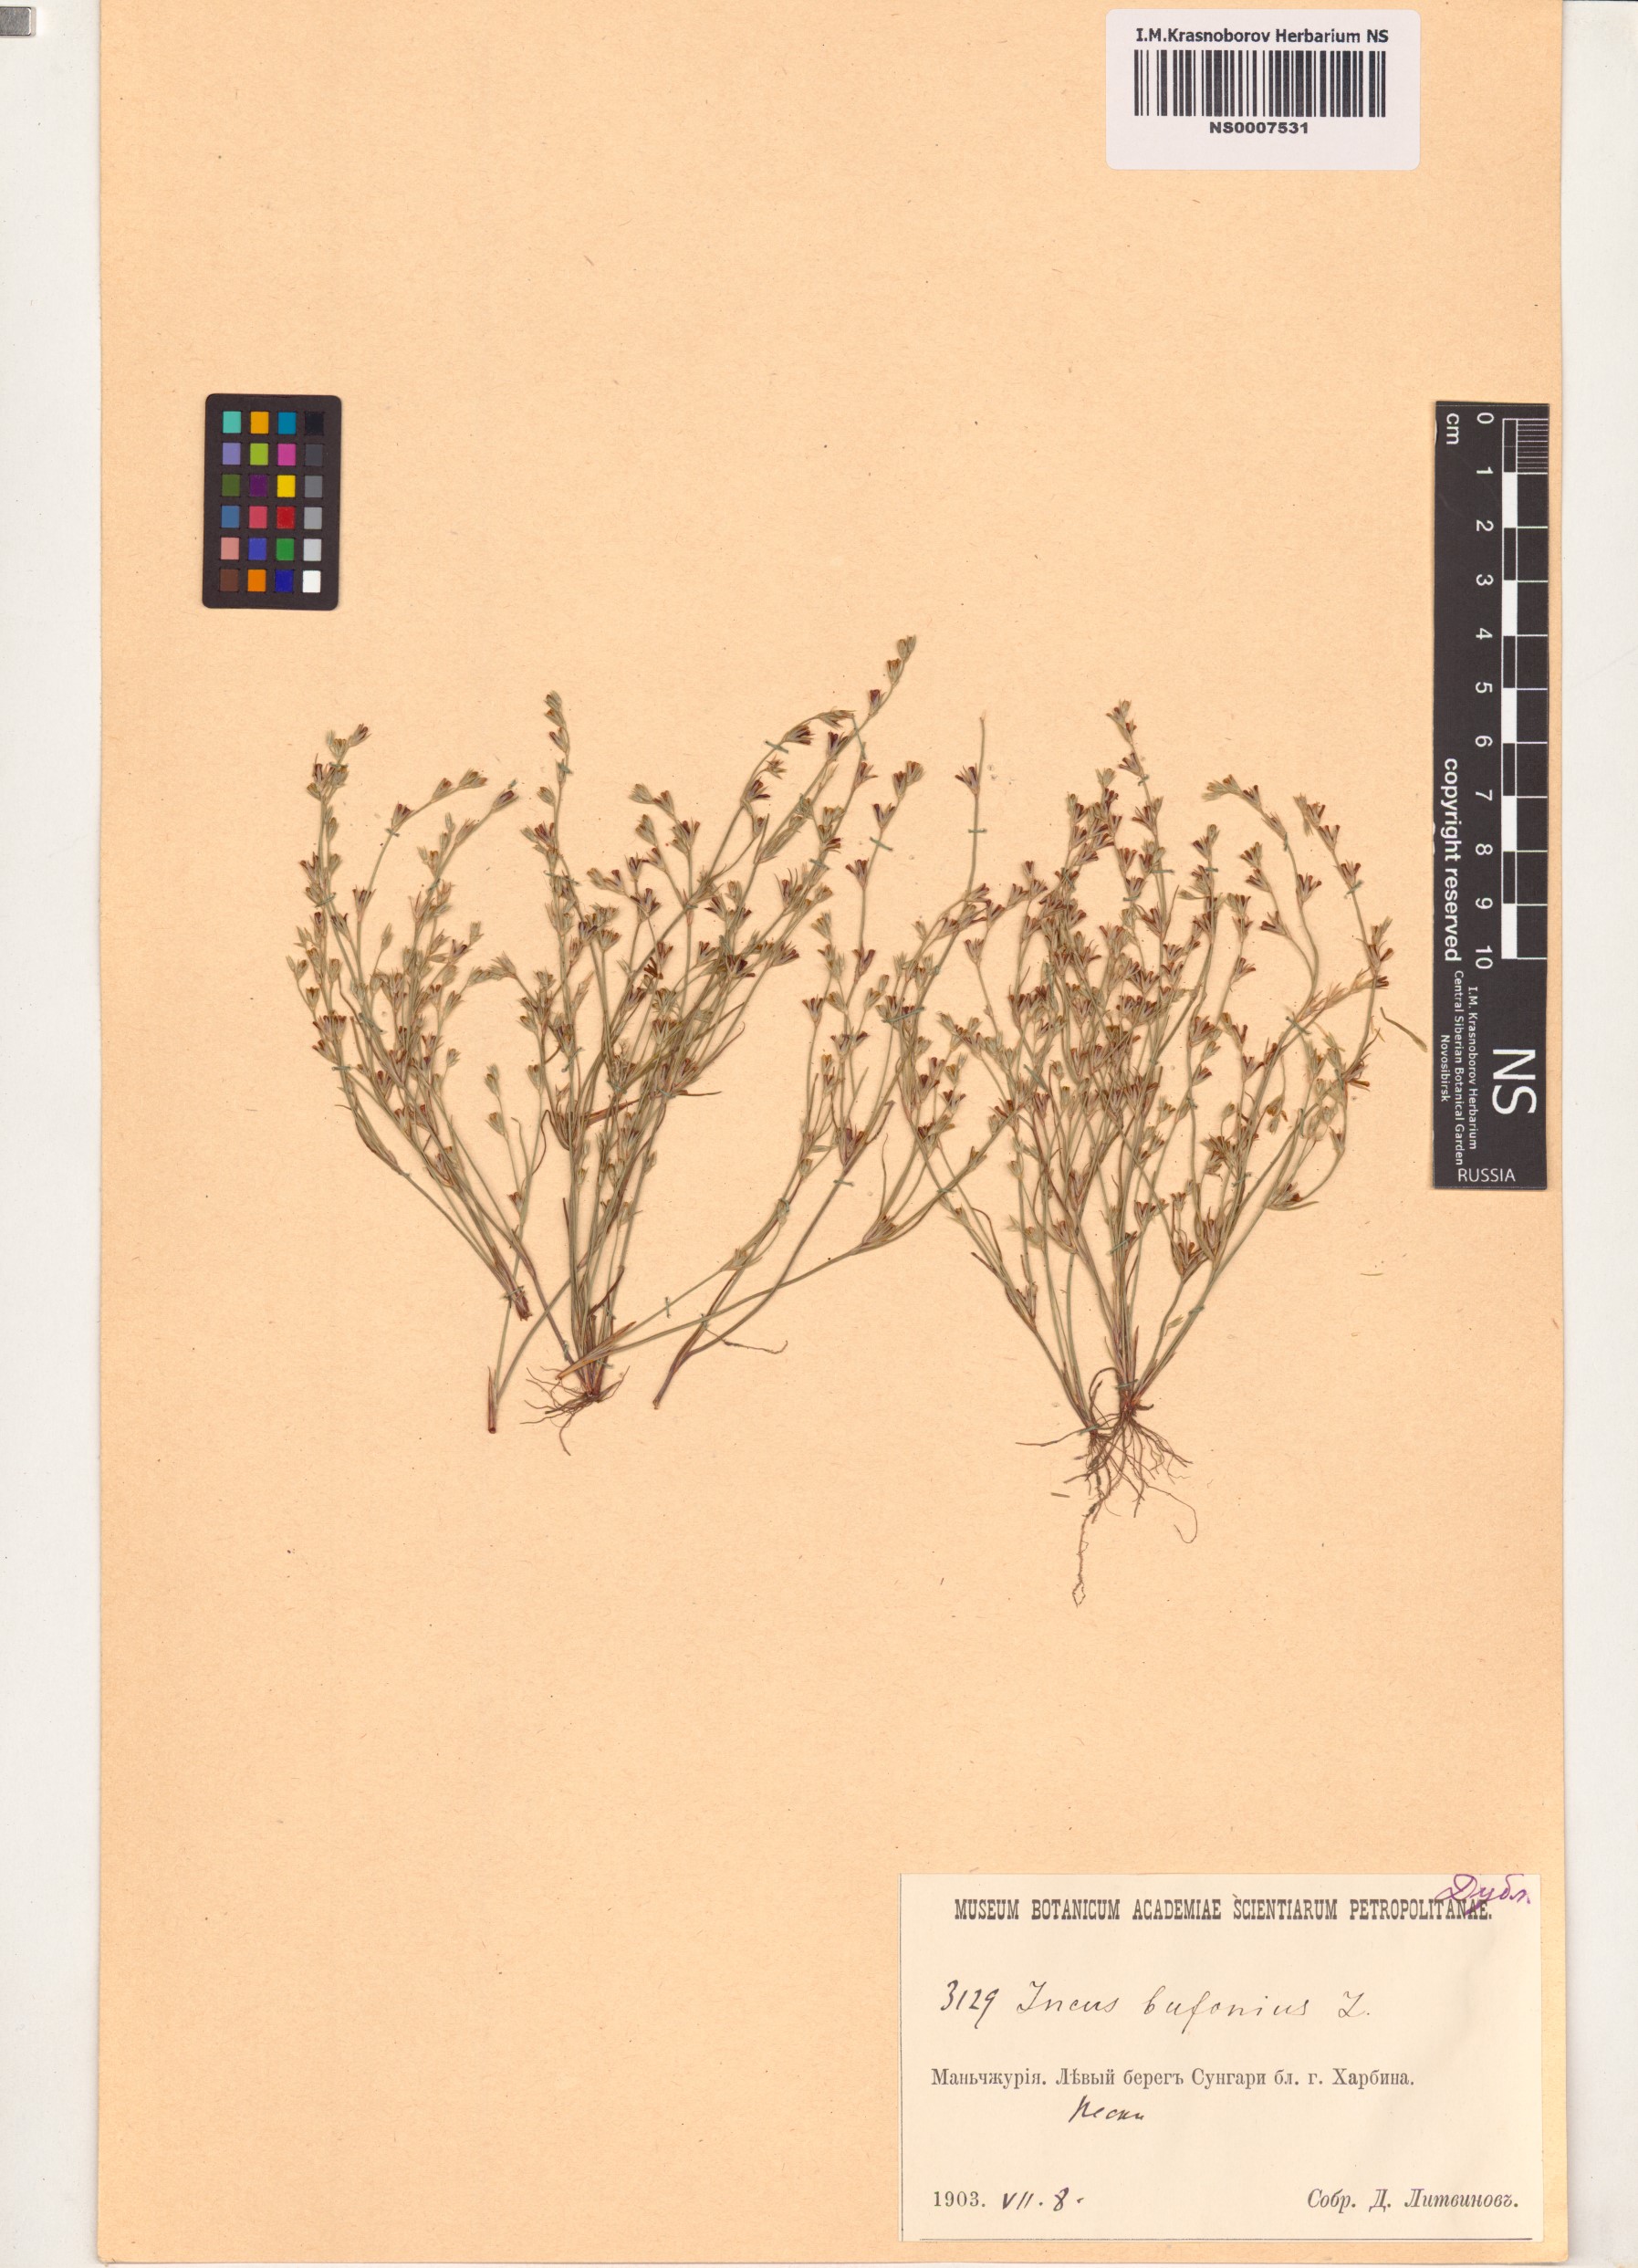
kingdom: Plantae
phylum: Tracheophyta
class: Liliopsida
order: Poales
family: Juncaceae
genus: Juncus
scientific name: Juncus bufonius
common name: Toad rush
